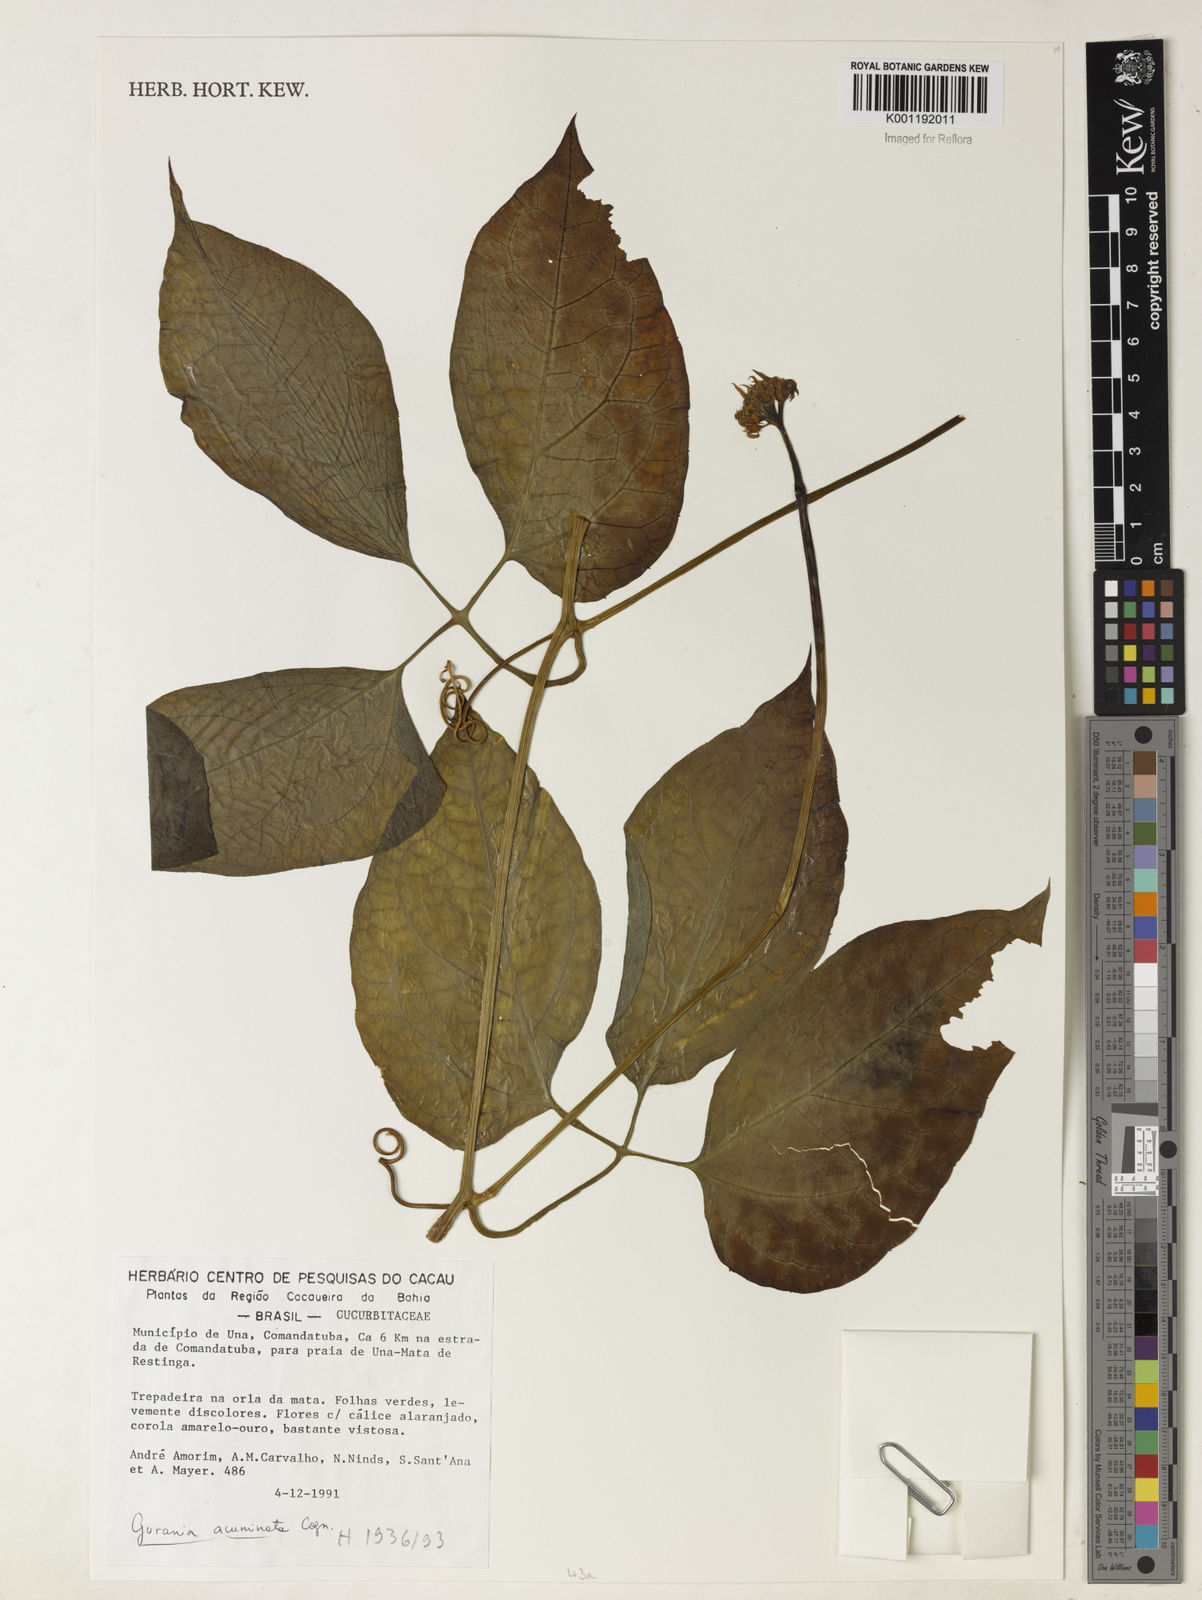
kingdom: Plantae
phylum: Tracheophyta
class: Magnoliopsida
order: Cucurbitales
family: Cucurbitaceae
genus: Gurania
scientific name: Gurania acuminata
